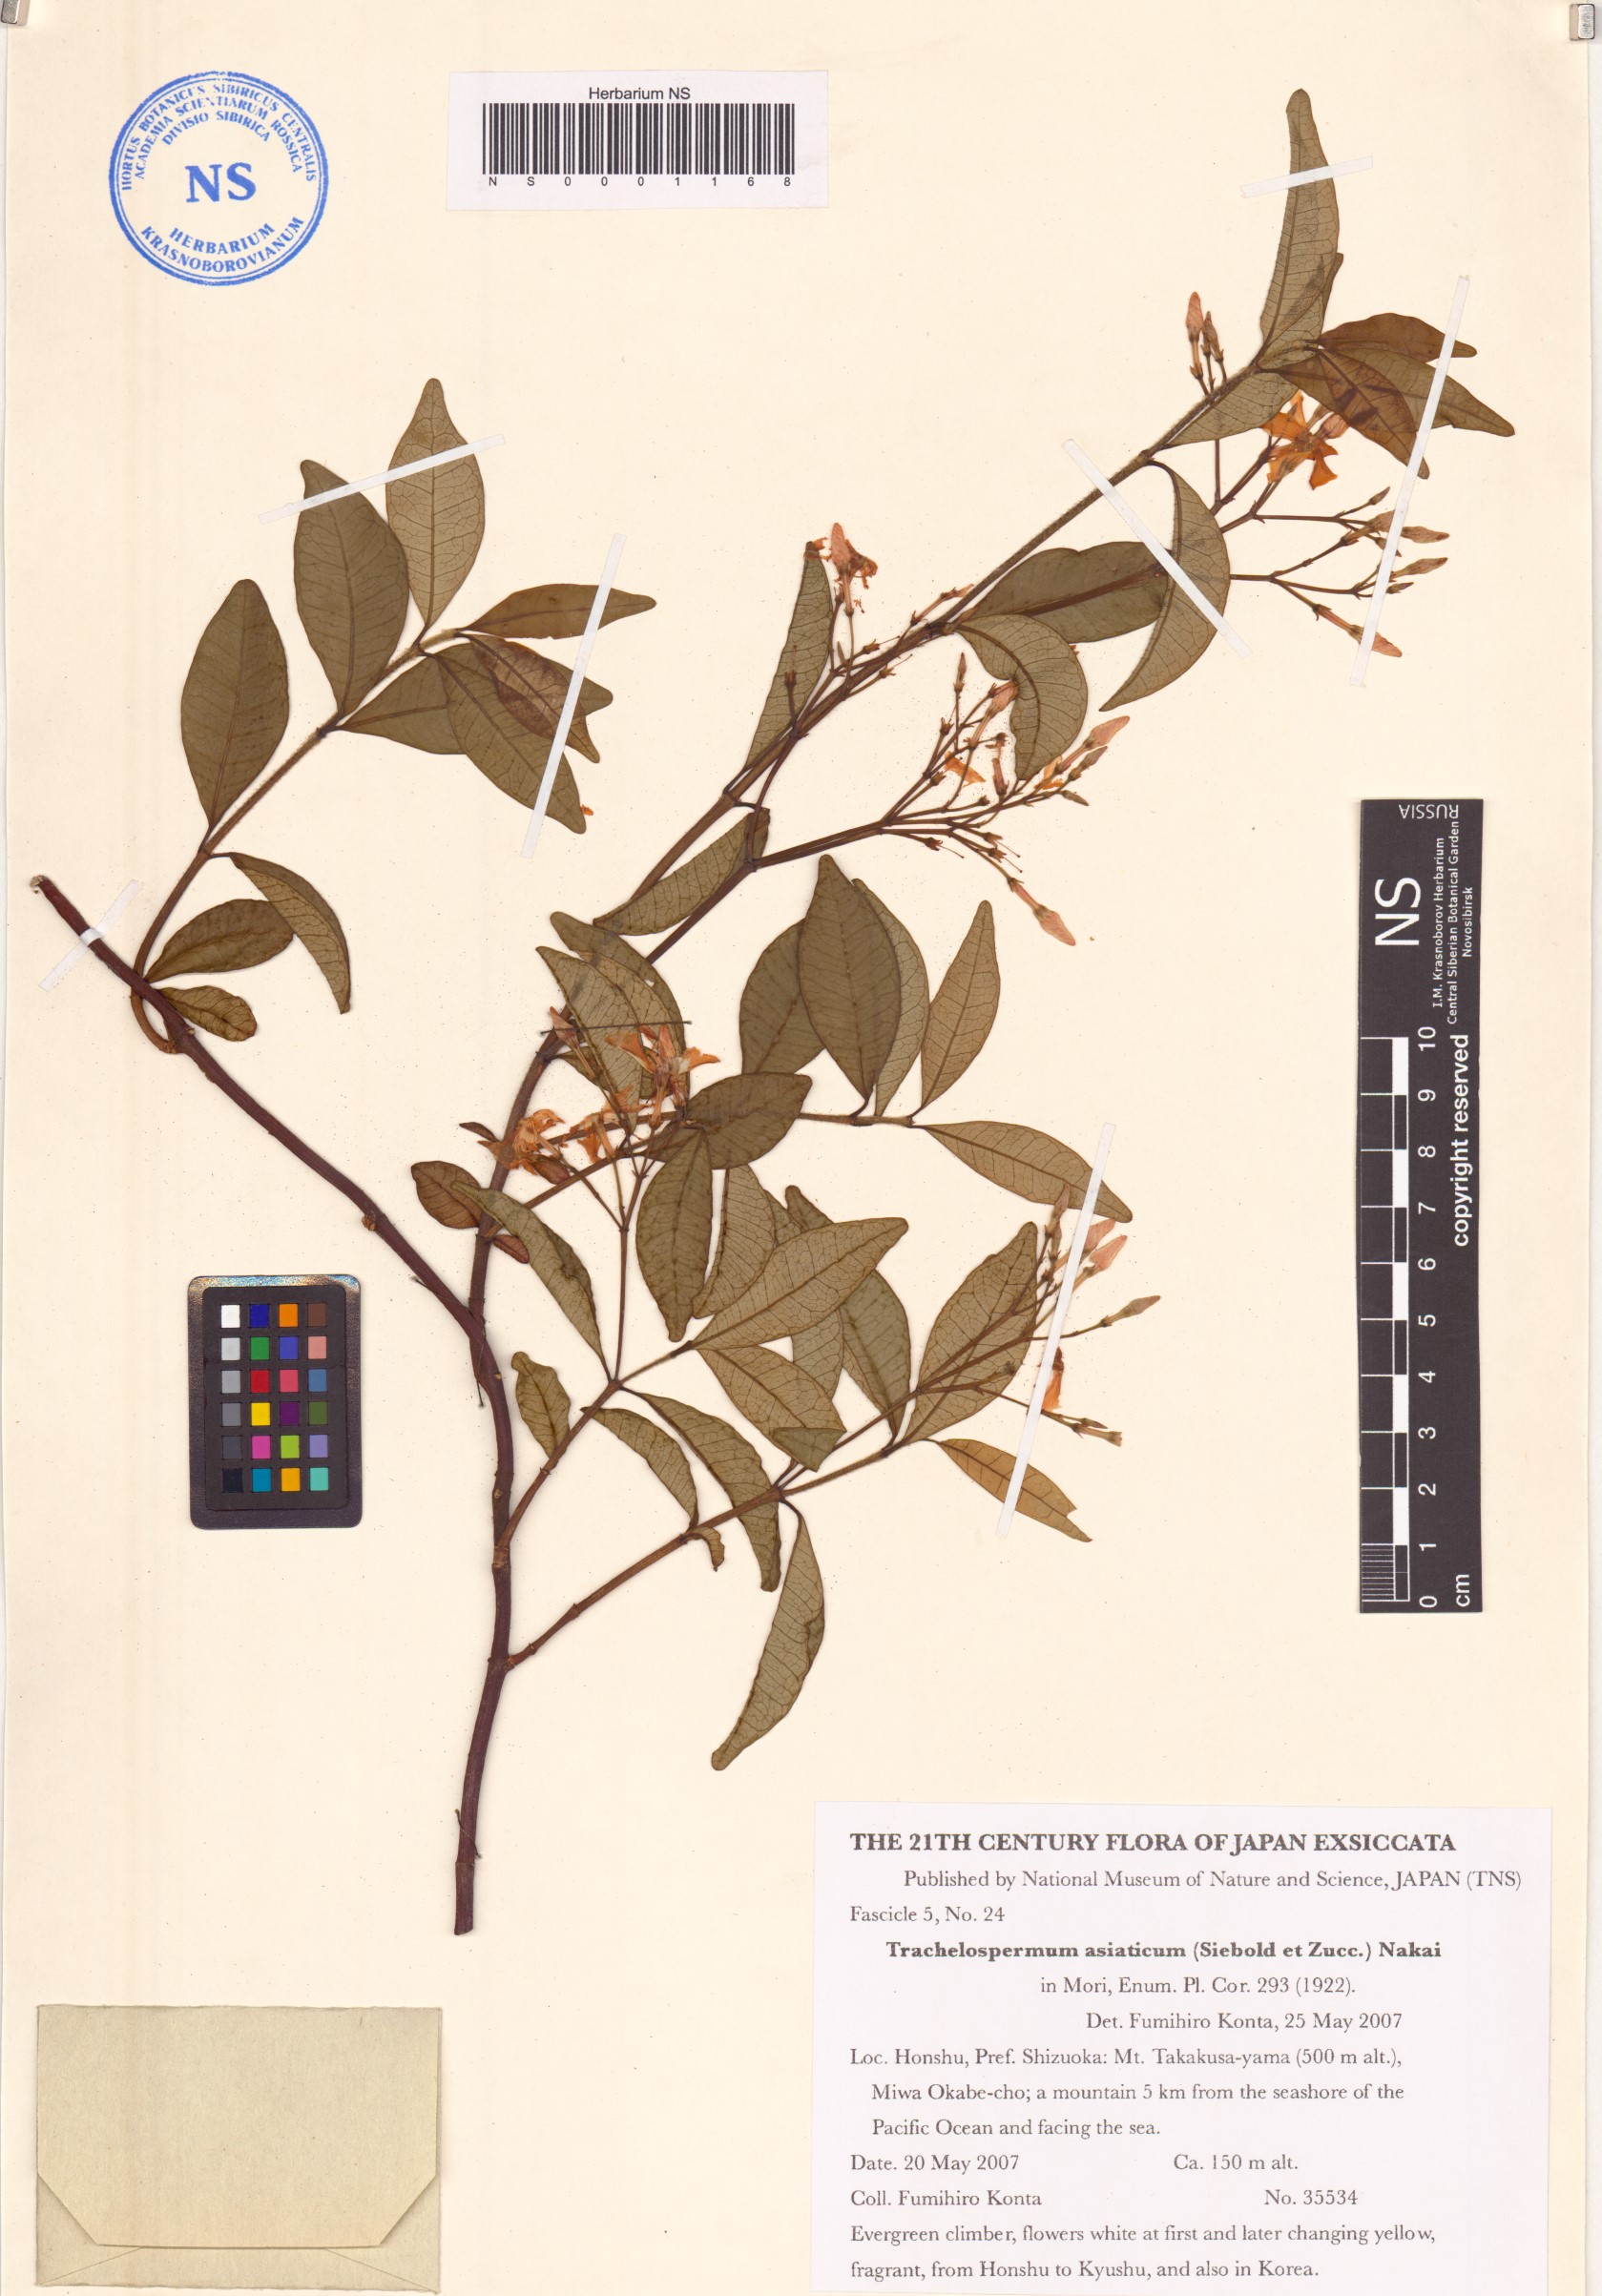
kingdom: Plantae
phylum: Tracheophyta
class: Magnoliopsida
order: Gentianales
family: Apocynaceae
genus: Trachelospermum
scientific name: Trachelospermum asiaticum
